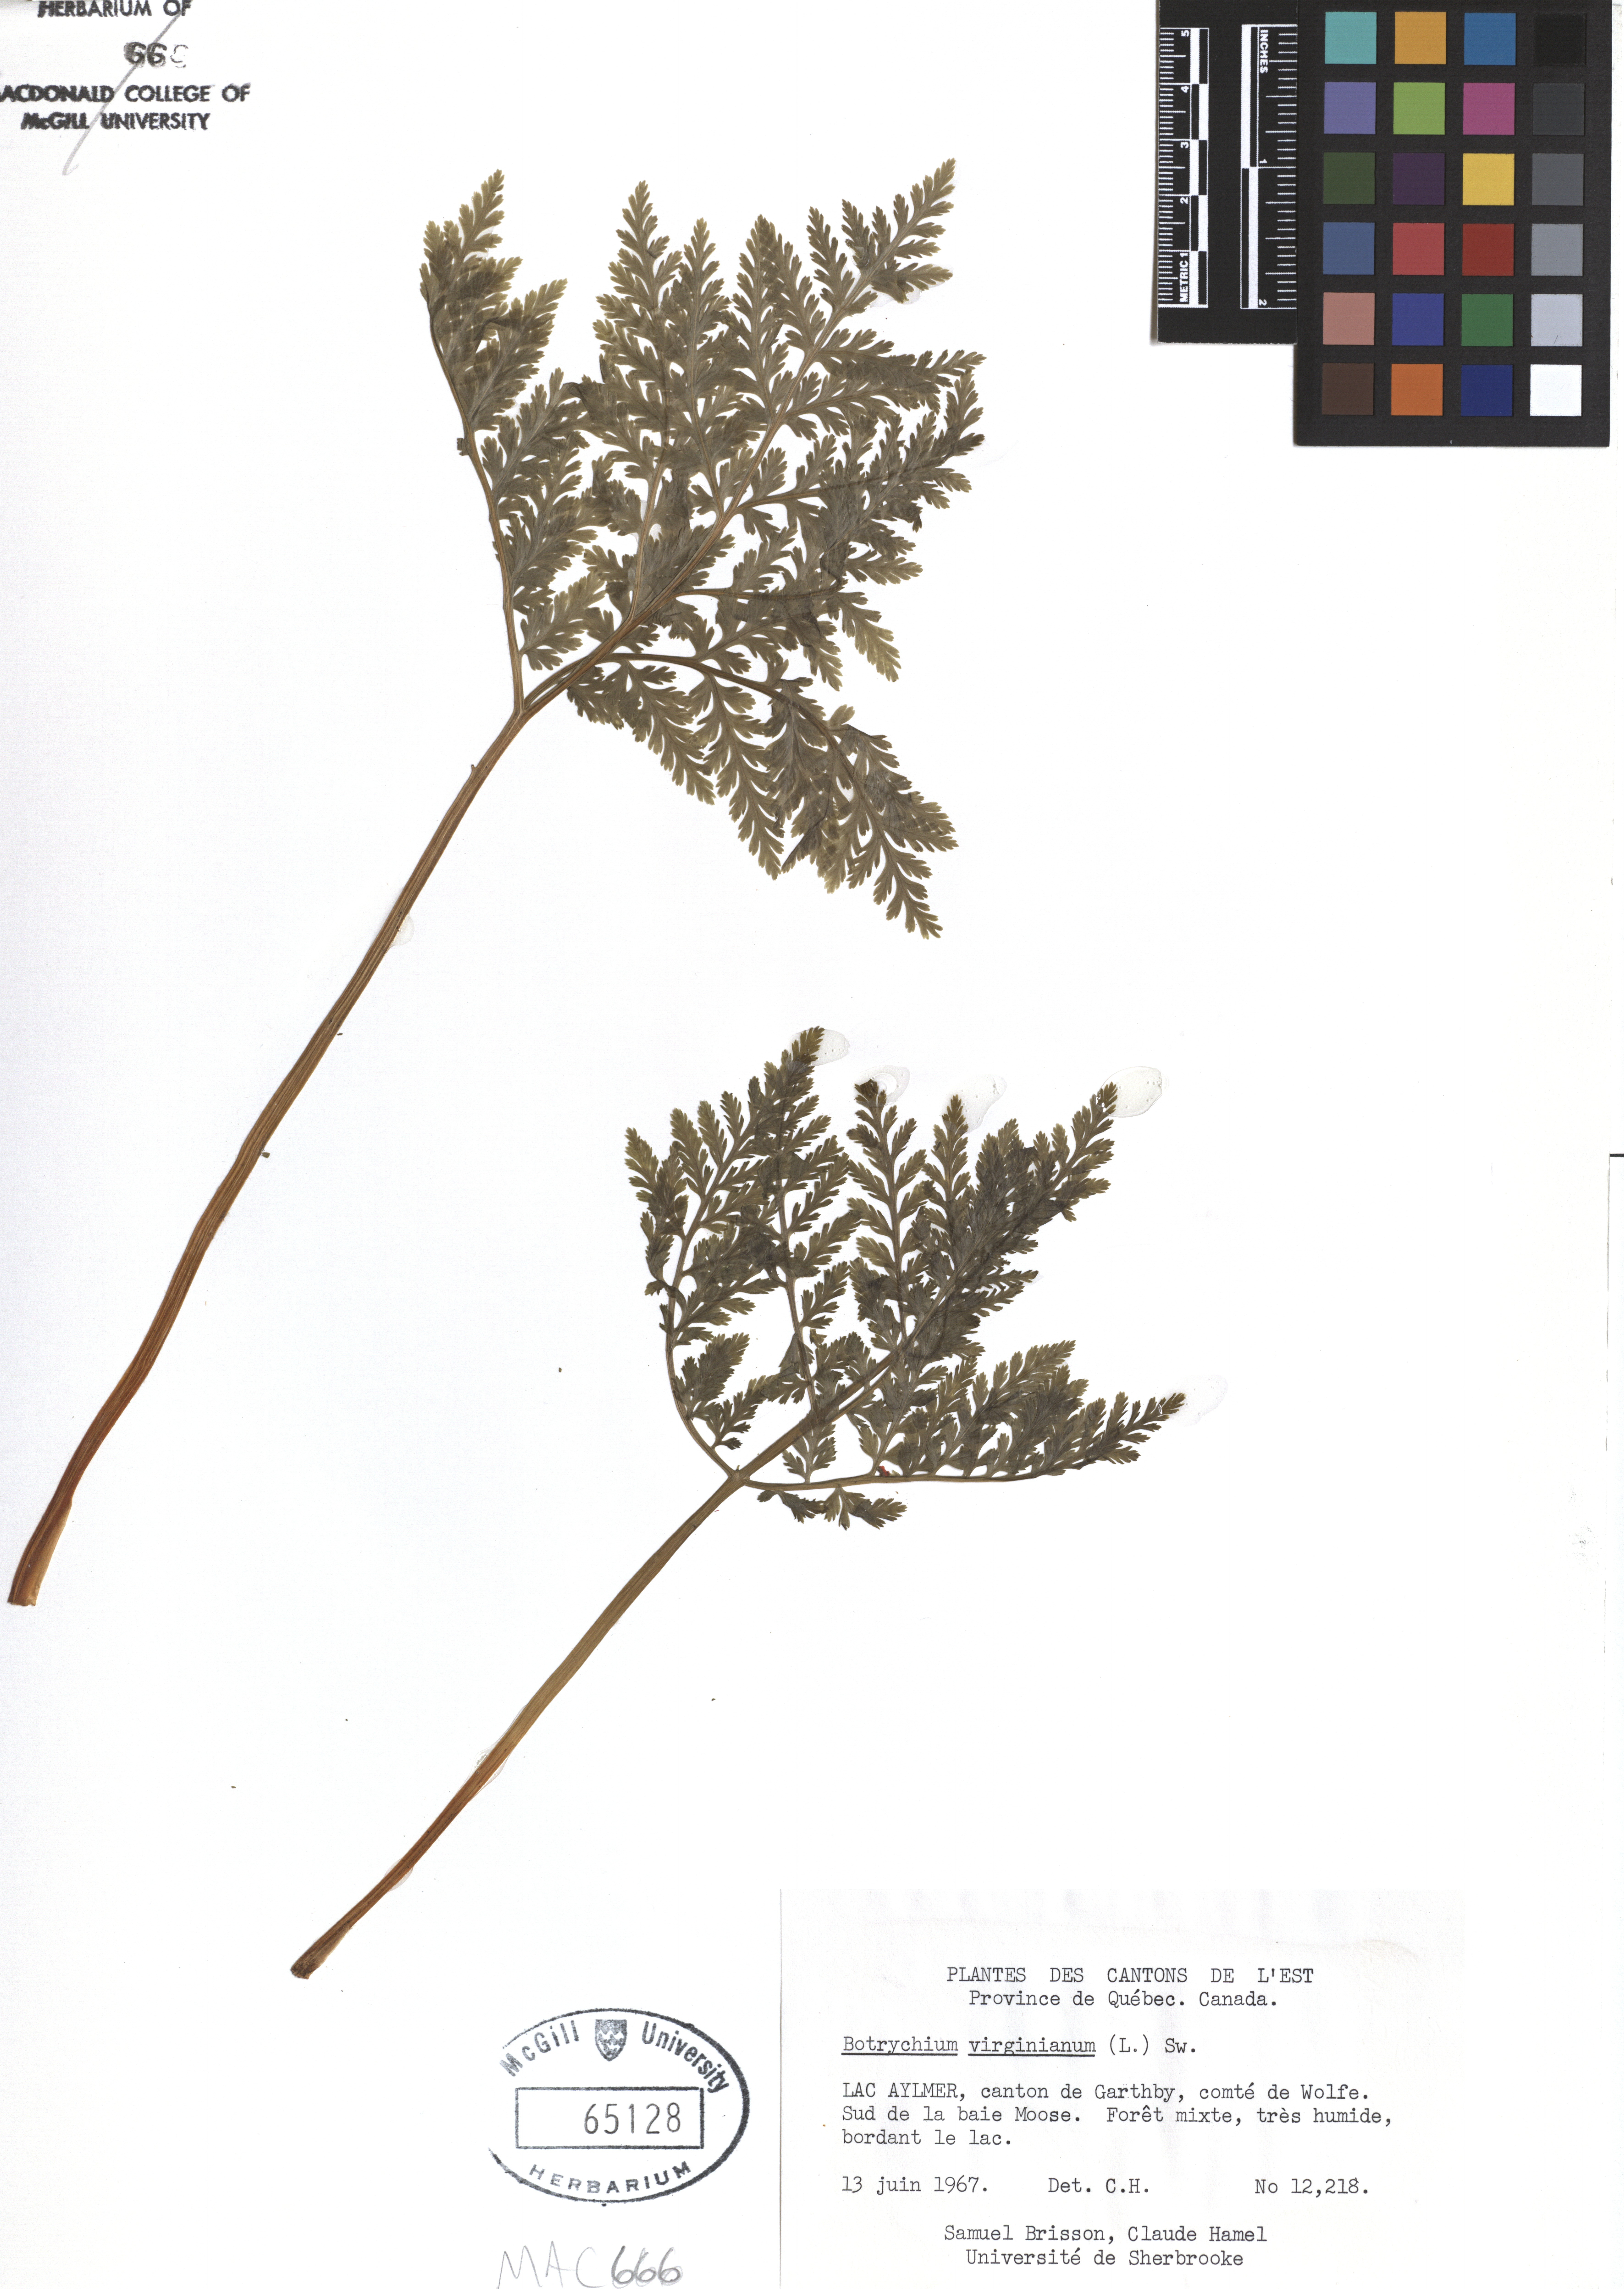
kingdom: Plantae
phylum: Tracheophyta
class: Polypodiopsida
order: Ophioglossales
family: Ophioglossaceae
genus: Botrypus
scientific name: Botrypus virginianus
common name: Common grapefern
